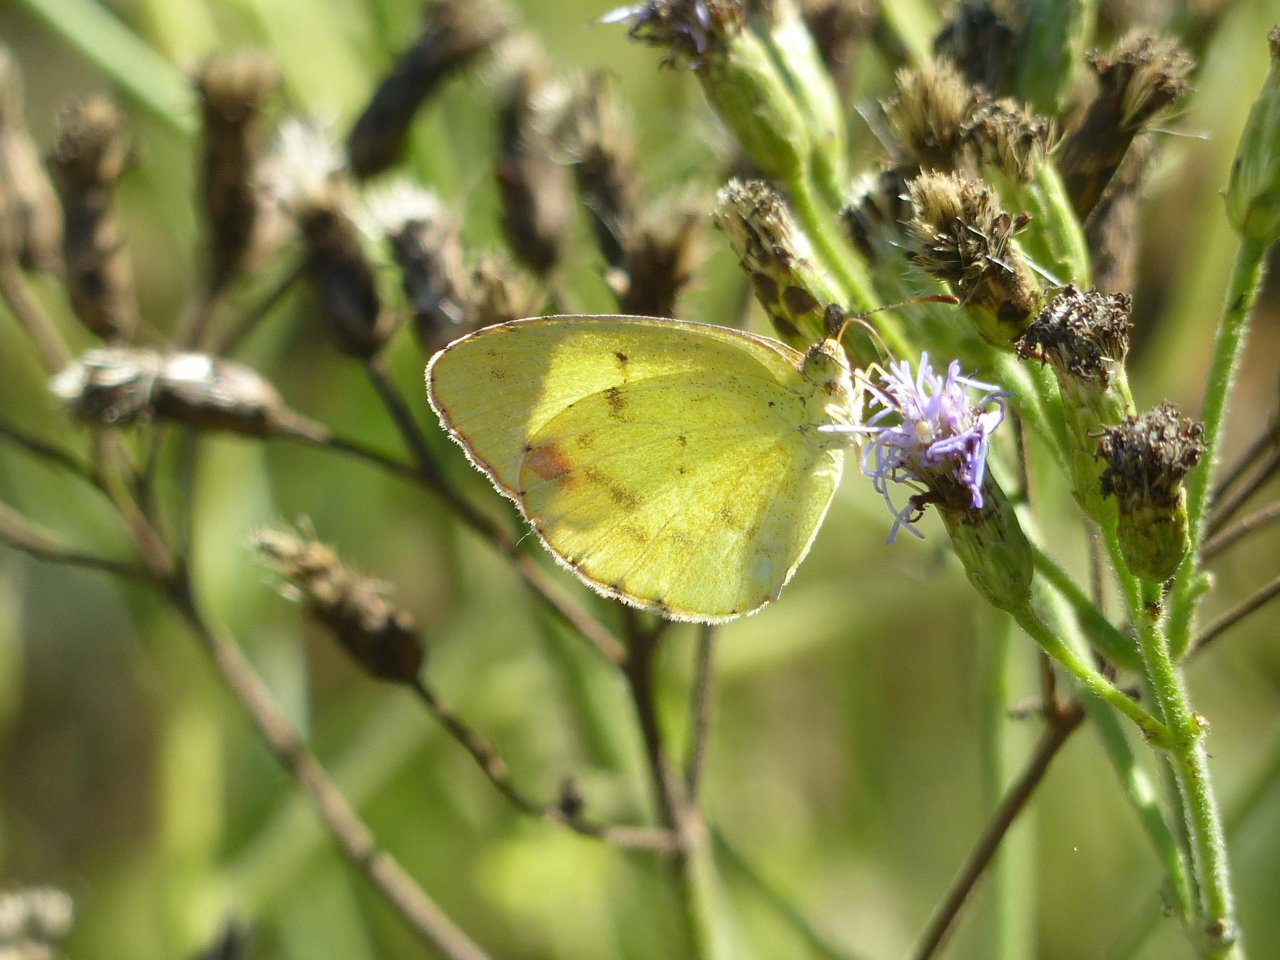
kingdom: Animalia
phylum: Arthropoda
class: Insecta
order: Lepidoptera
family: Pieridae
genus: Pyrisitia
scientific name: Pyrisitia lisa
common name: Little Yellow
